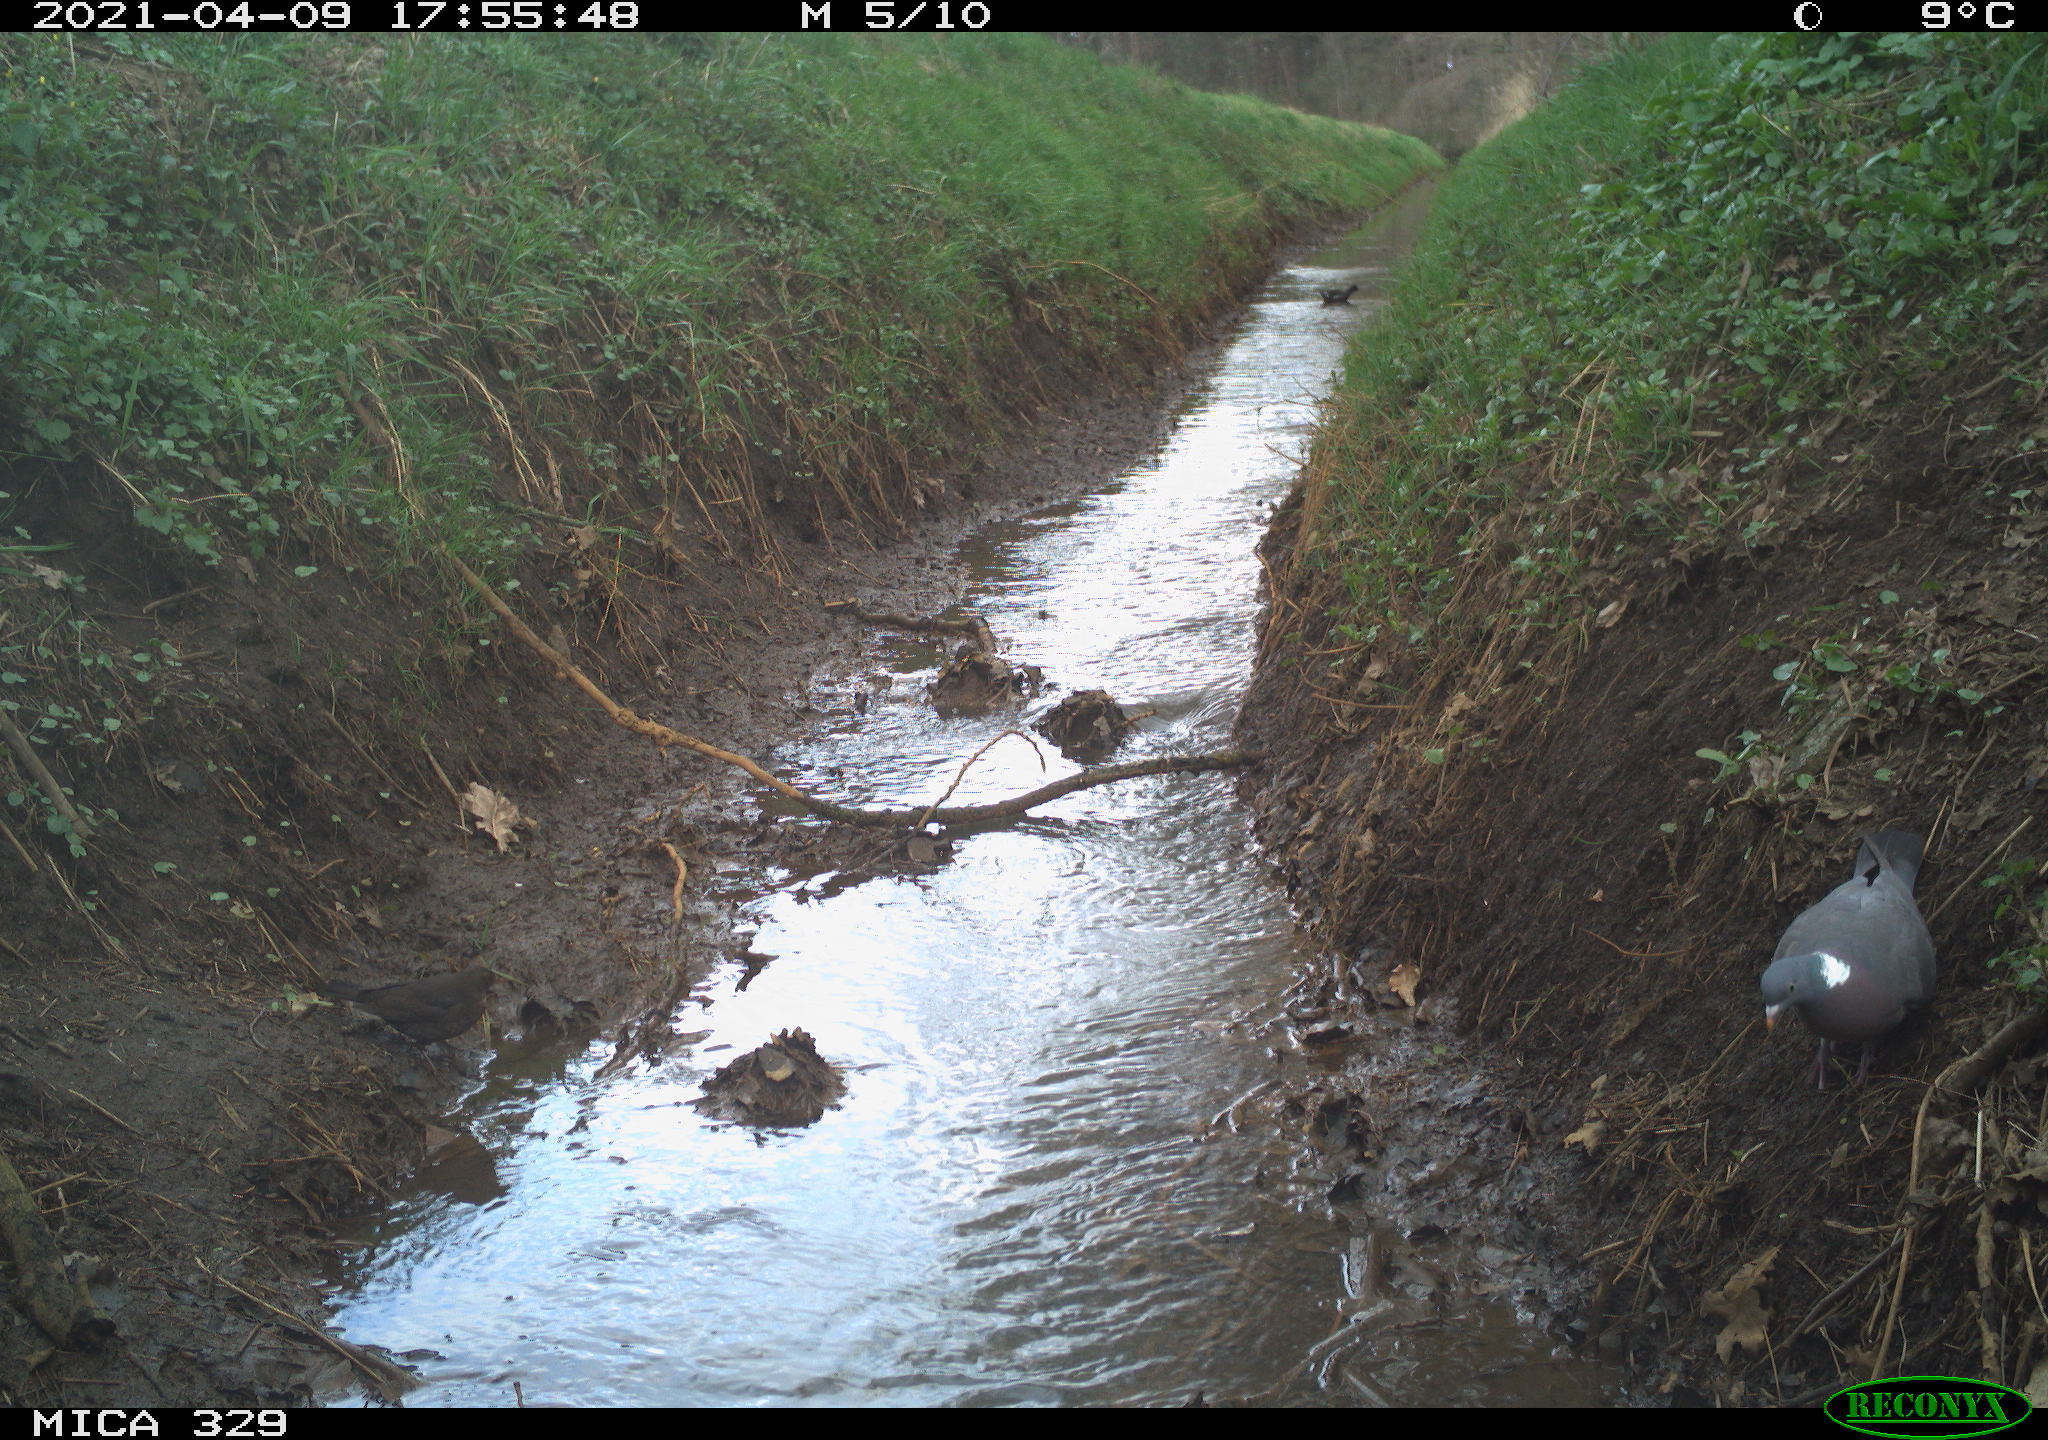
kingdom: Animalia
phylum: Chordata
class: Aves
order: Passeriformes
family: Turdidae
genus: Turdus
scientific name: Turdus merula
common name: Common blackbird
